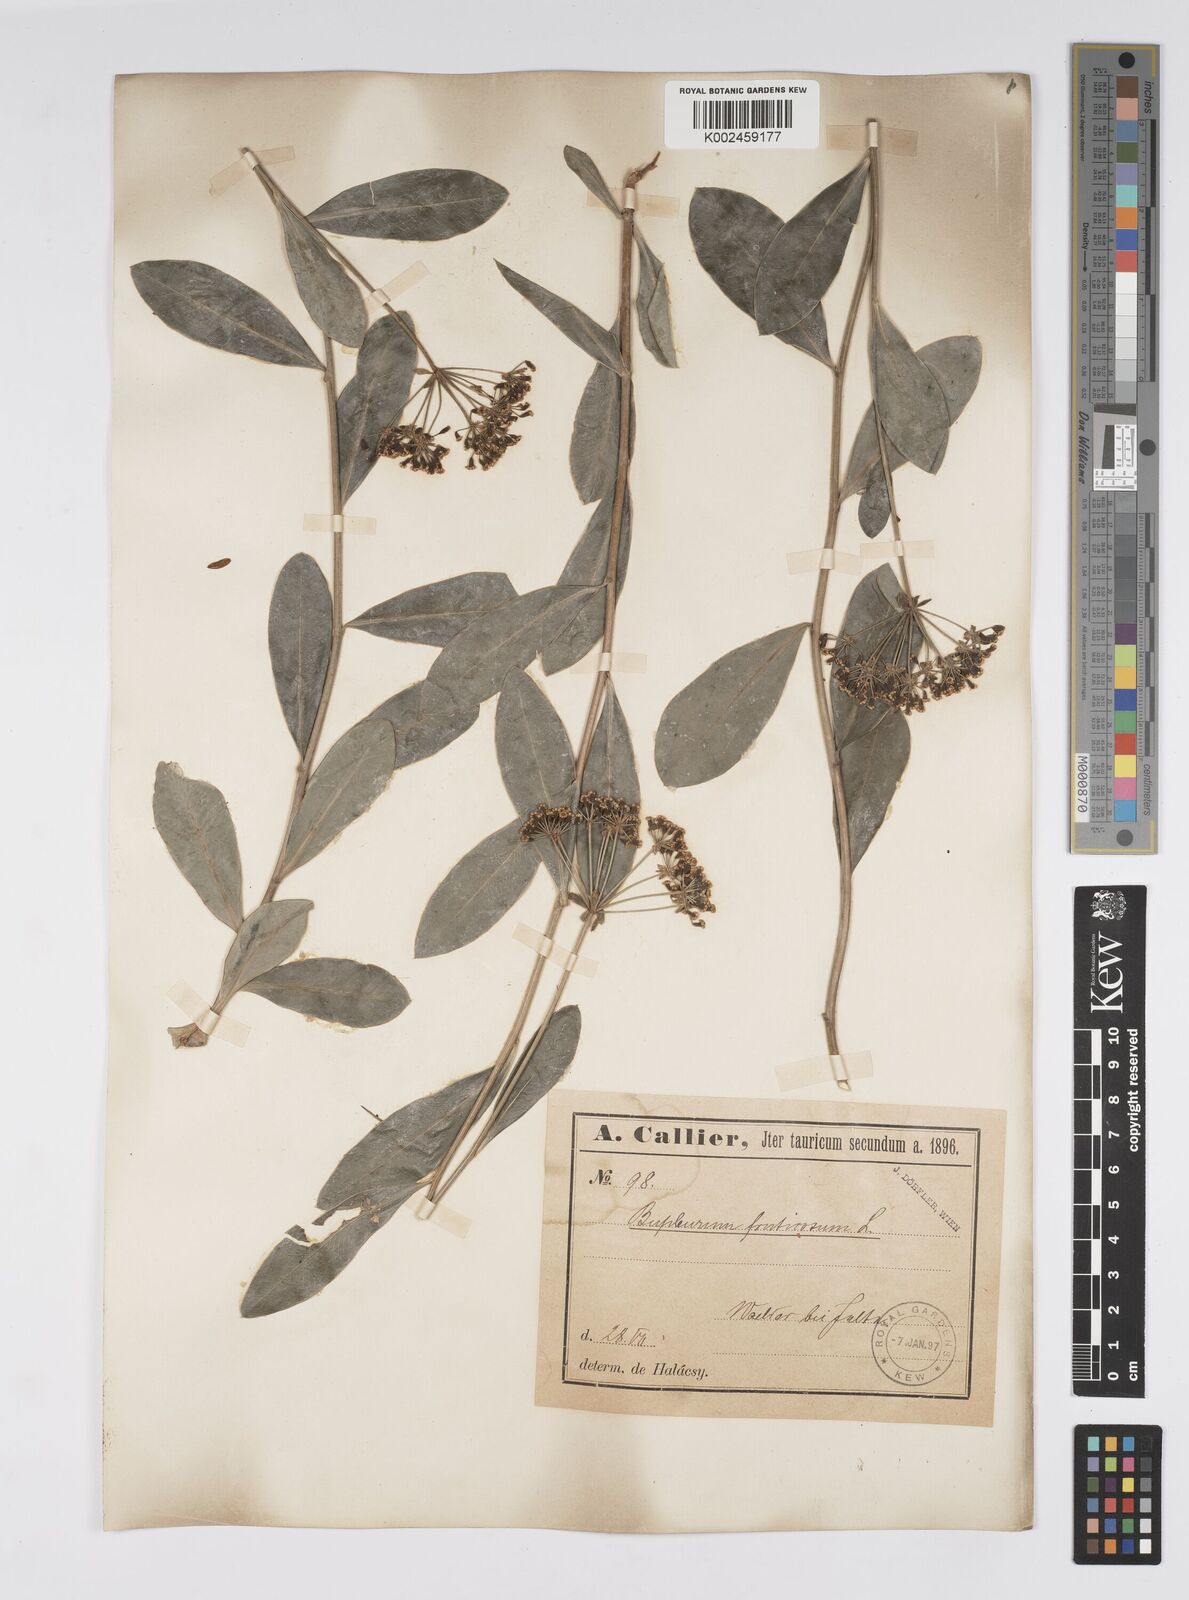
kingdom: Plantae
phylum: Tracheophyta
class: Magnoliopsida
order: Apiales
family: Apiaceae
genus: Bupleurum
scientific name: Bupleurum fruticosum
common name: Shrubby hare's-ear
